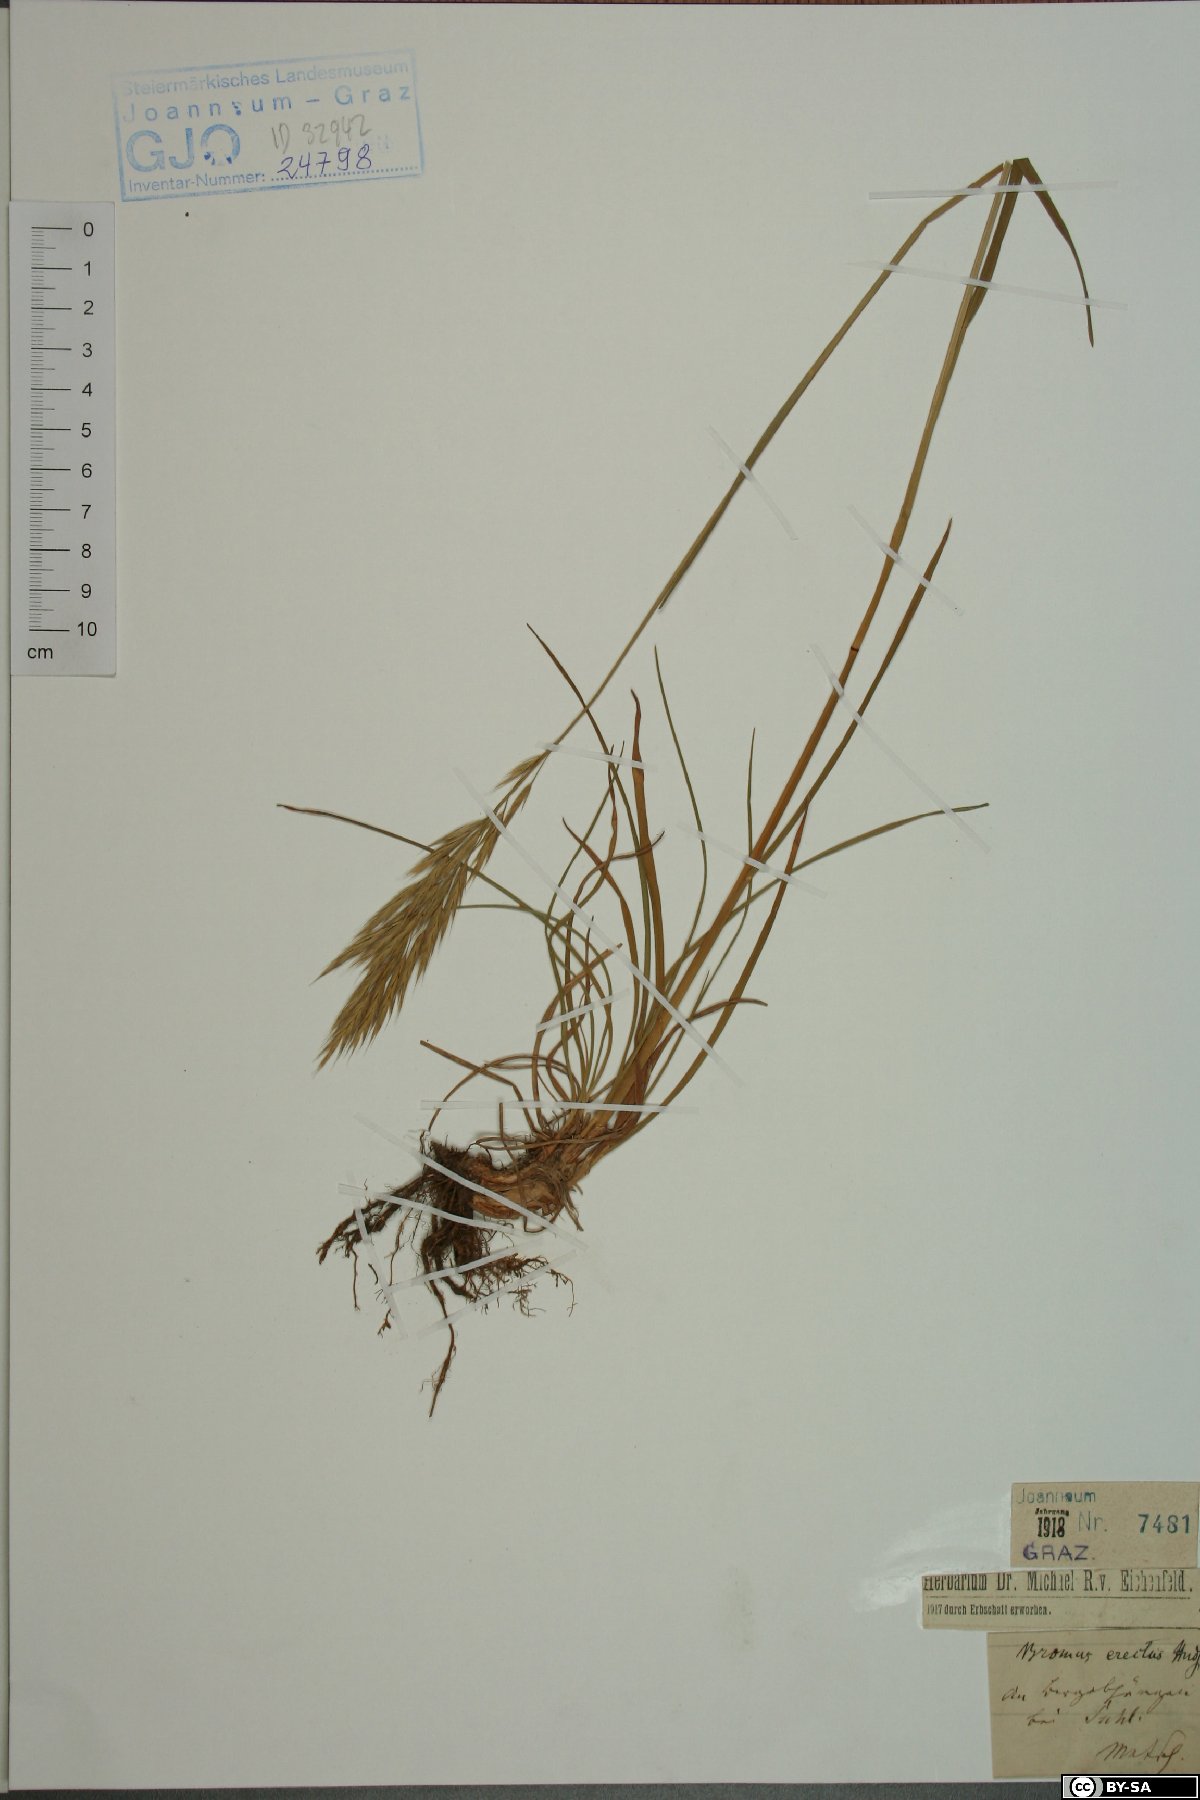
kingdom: Plantae
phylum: Tracheophyta
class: Liliopsida
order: Poales
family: Poaceae
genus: Bromus
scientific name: Bromus erectus
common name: Erect brome
